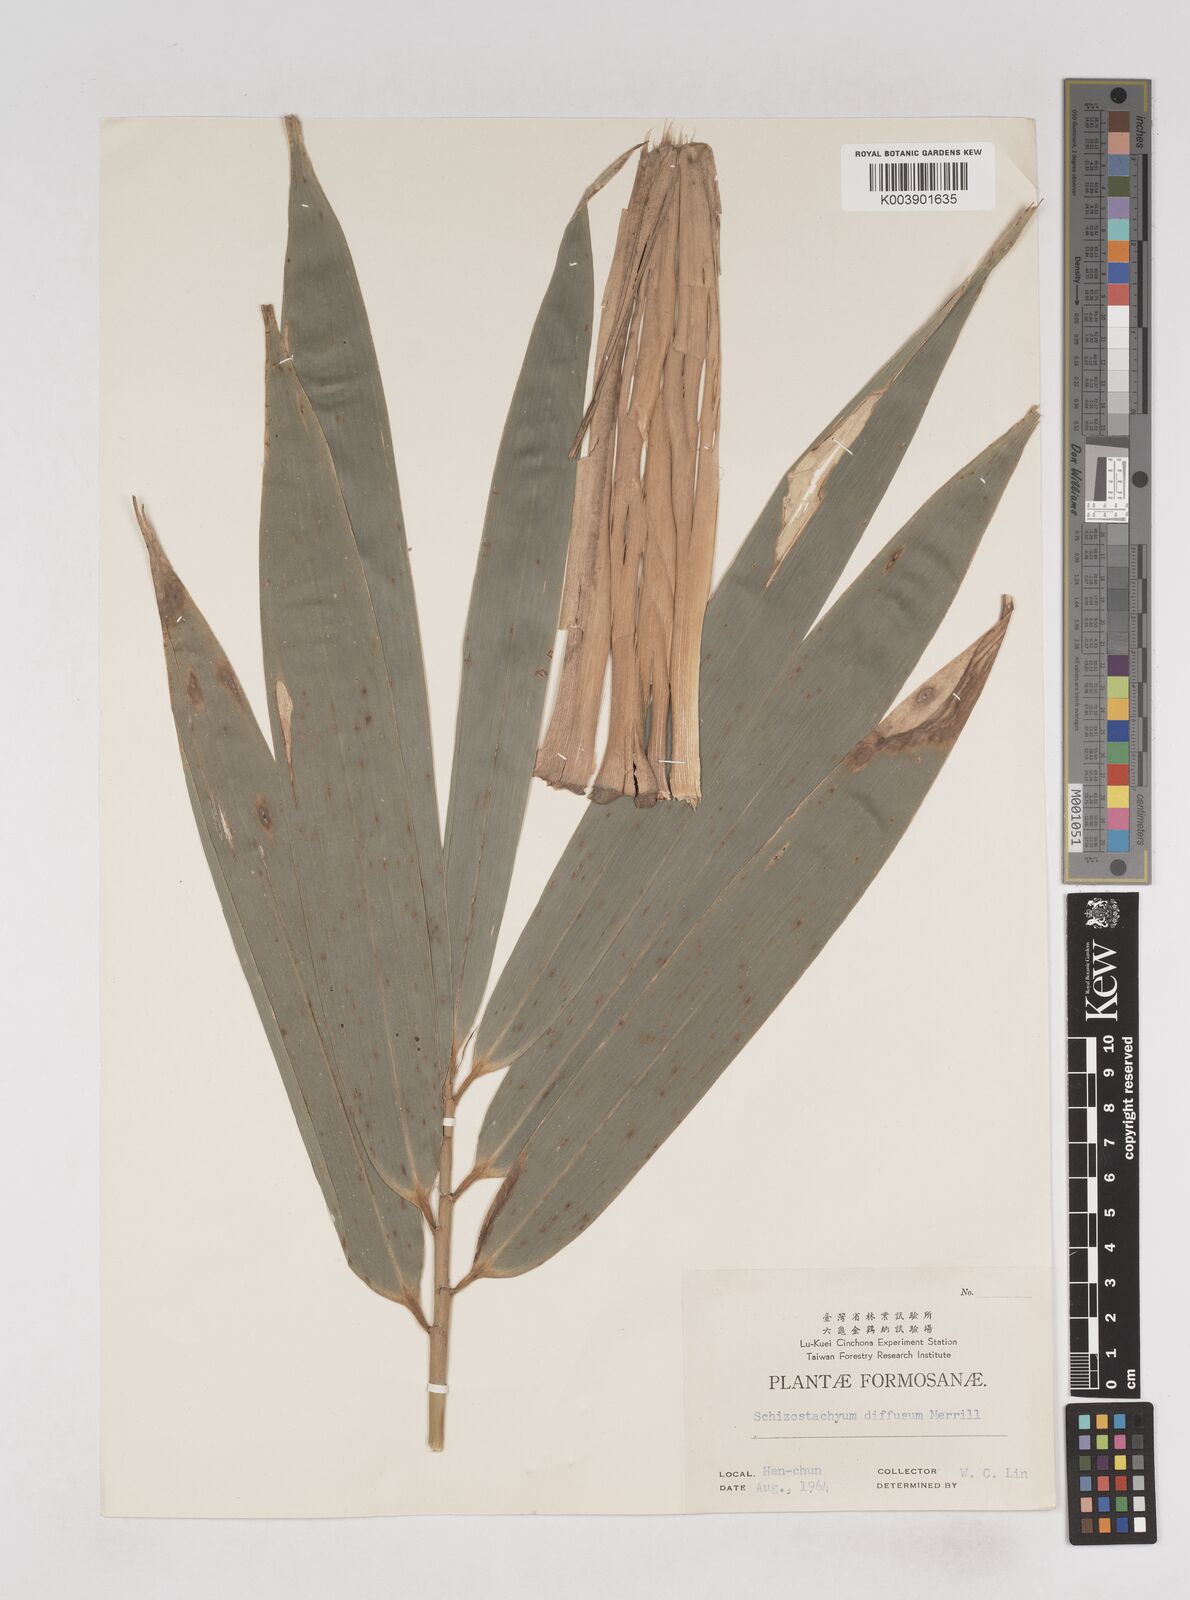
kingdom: Plantae
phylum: Tracheophyta
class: Liliopsida
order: Poales
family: Poaceae
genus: Bambusa
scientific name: Bambusa diffusa
